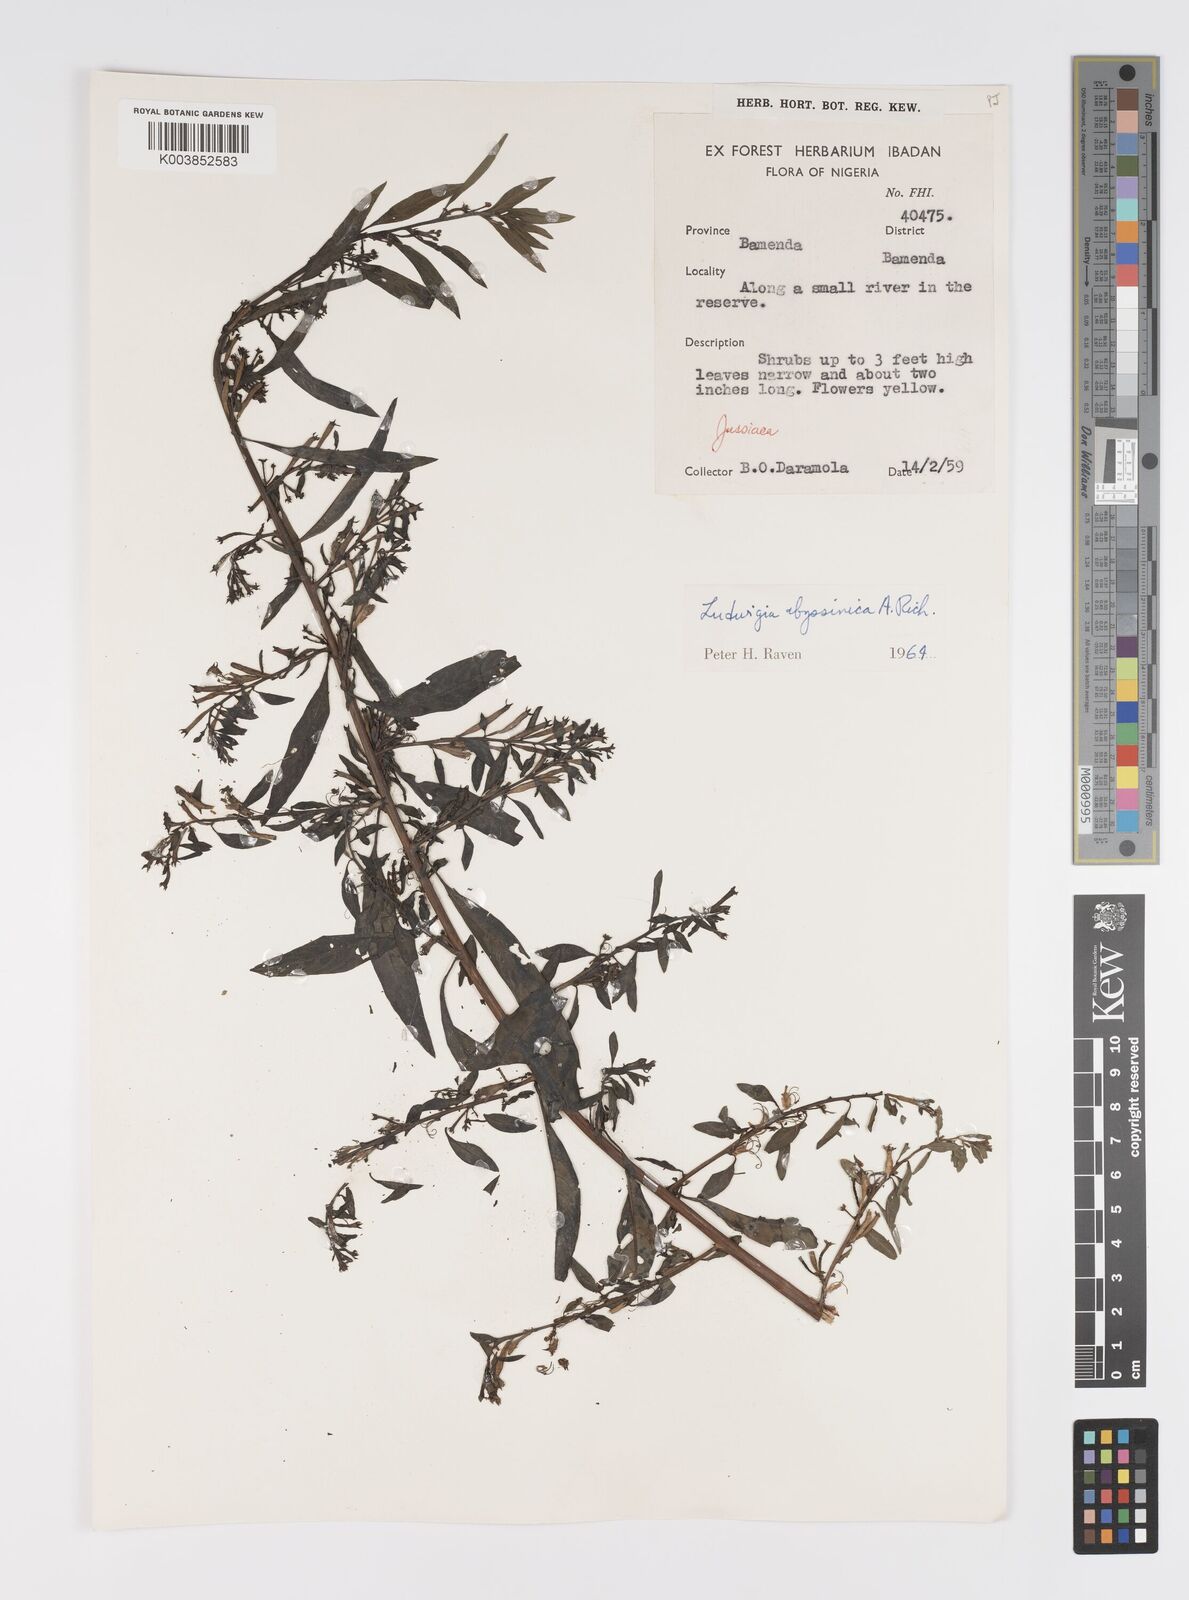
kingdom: Plantae
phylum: Tracheophyta
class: Magnoliopsida
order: Myrtales
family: Onagraceae
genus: Ludwigia
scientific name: Ludwigia abyssinica
